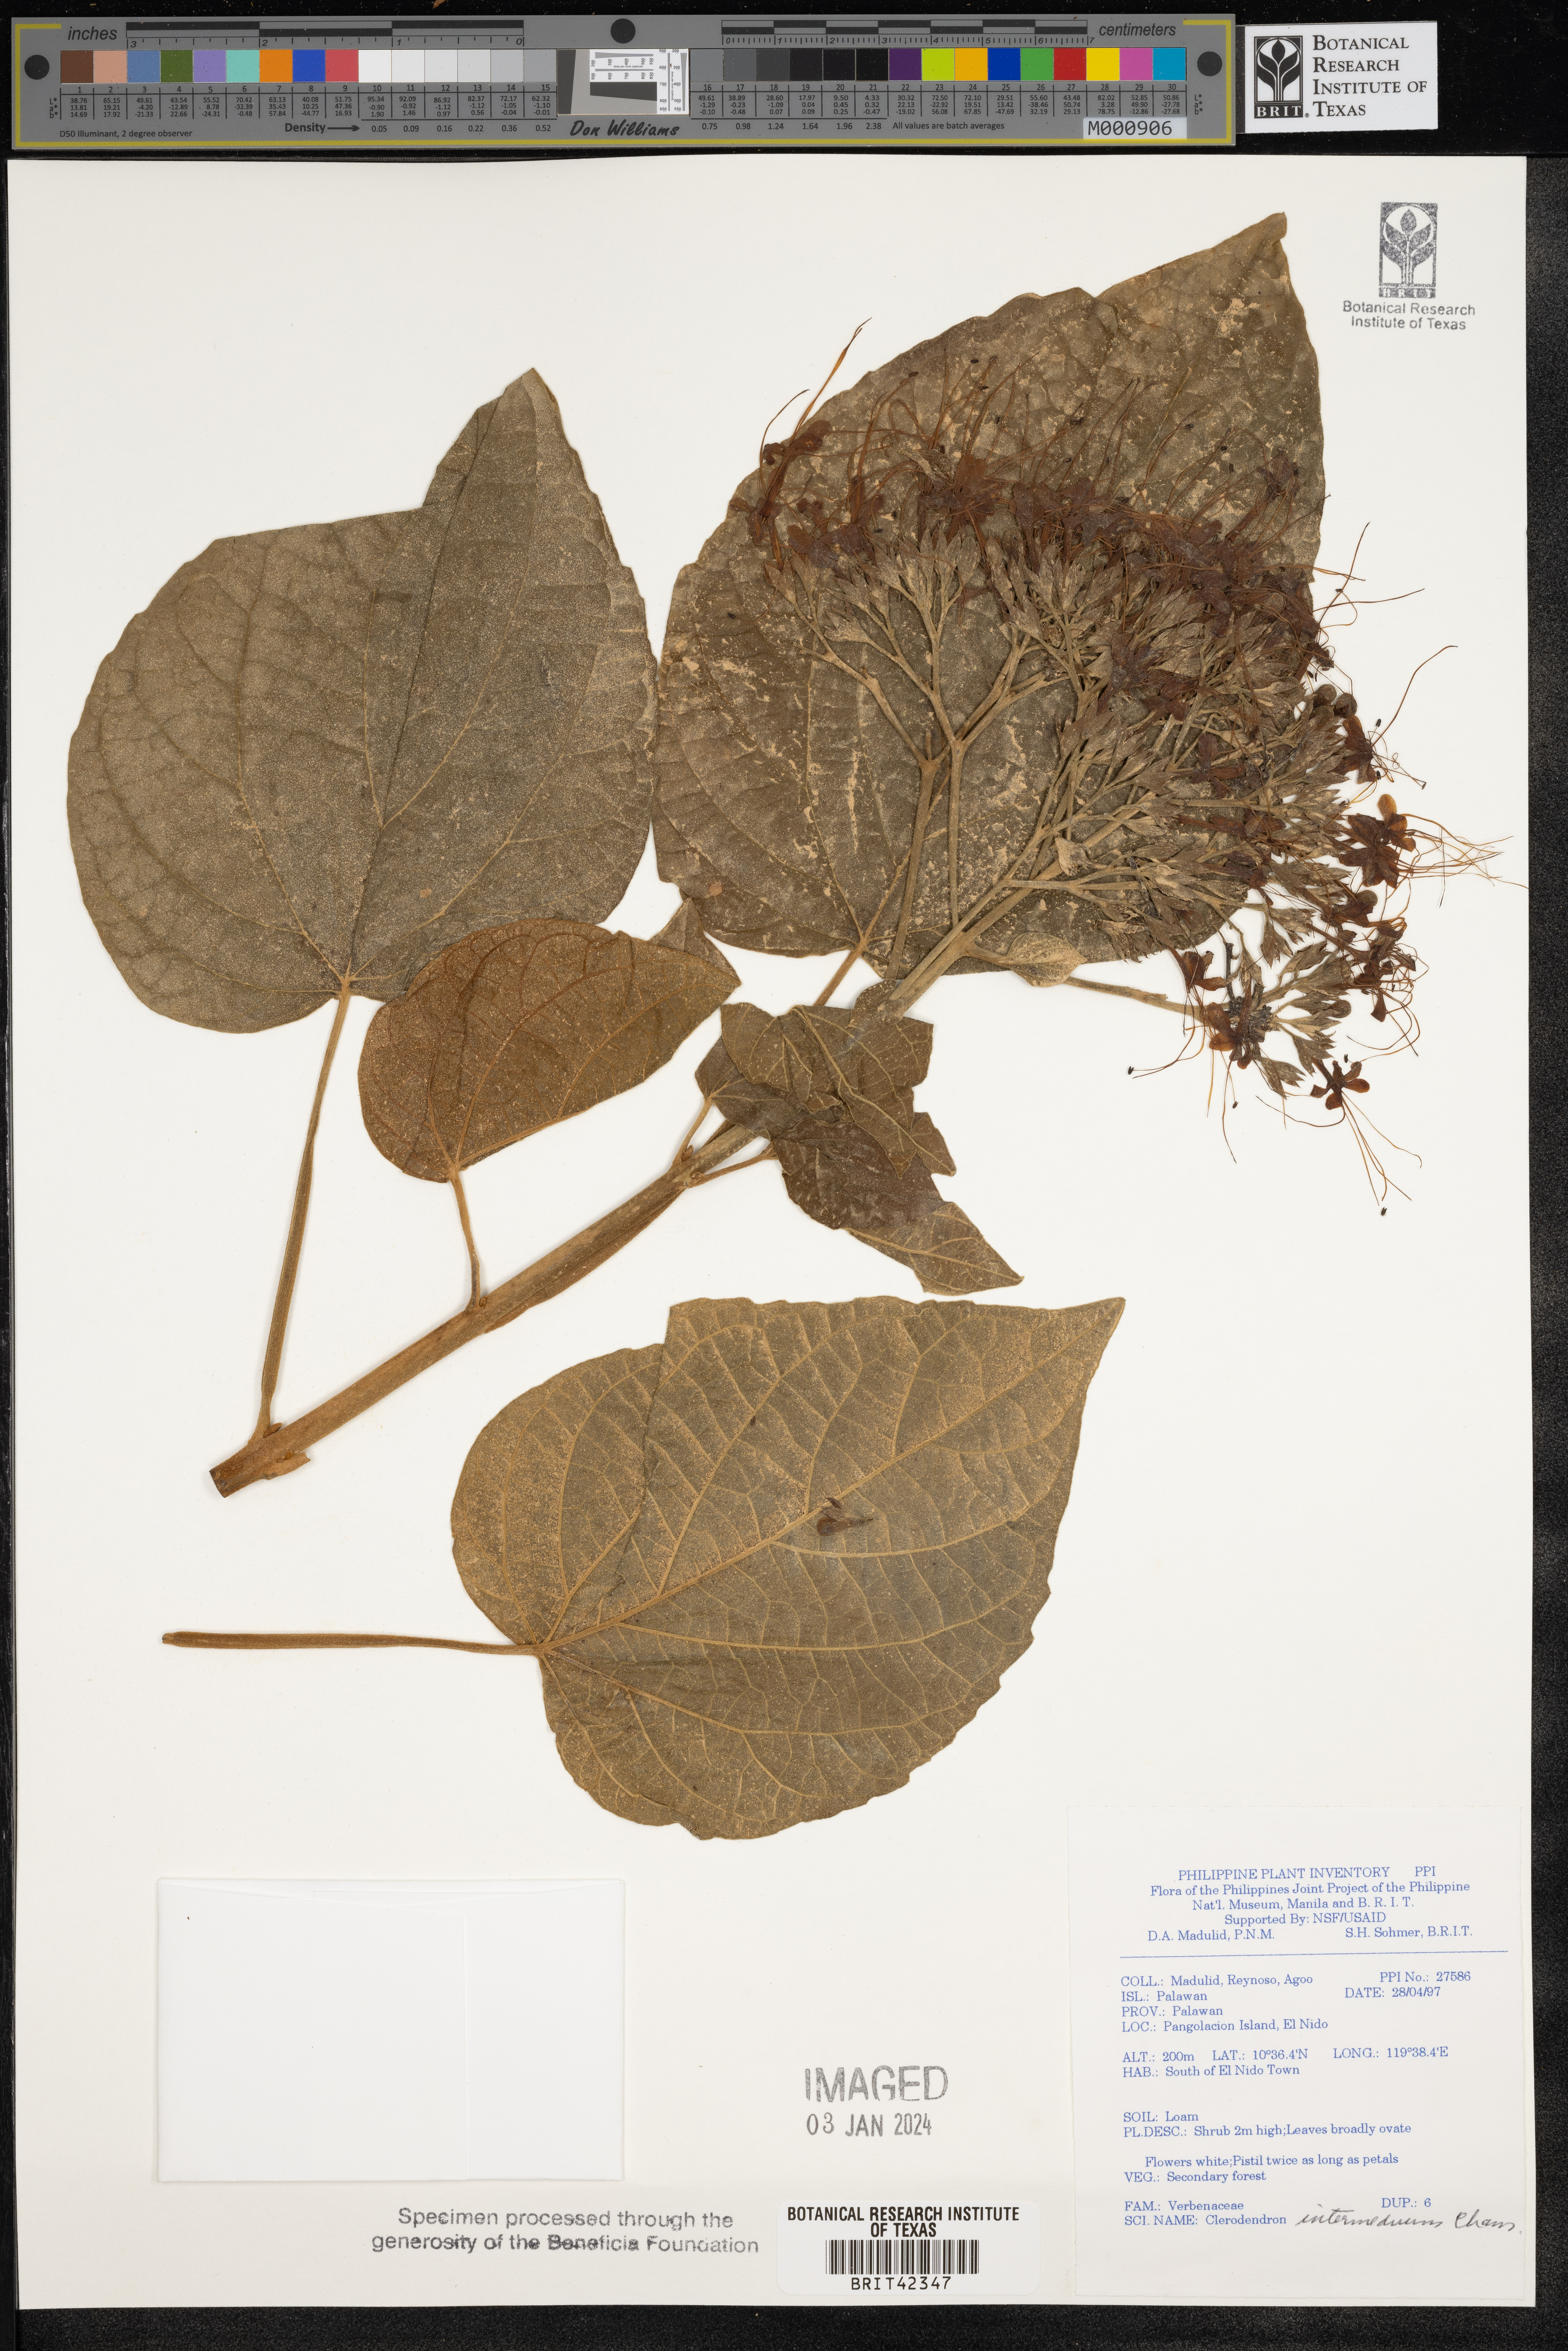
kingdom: Plantae
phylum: Tracheophyta
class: Magnoliopsida
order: Lamiales
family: Lamiaceae
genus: Clerodendrum
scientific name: Clerodendrum intermedium
